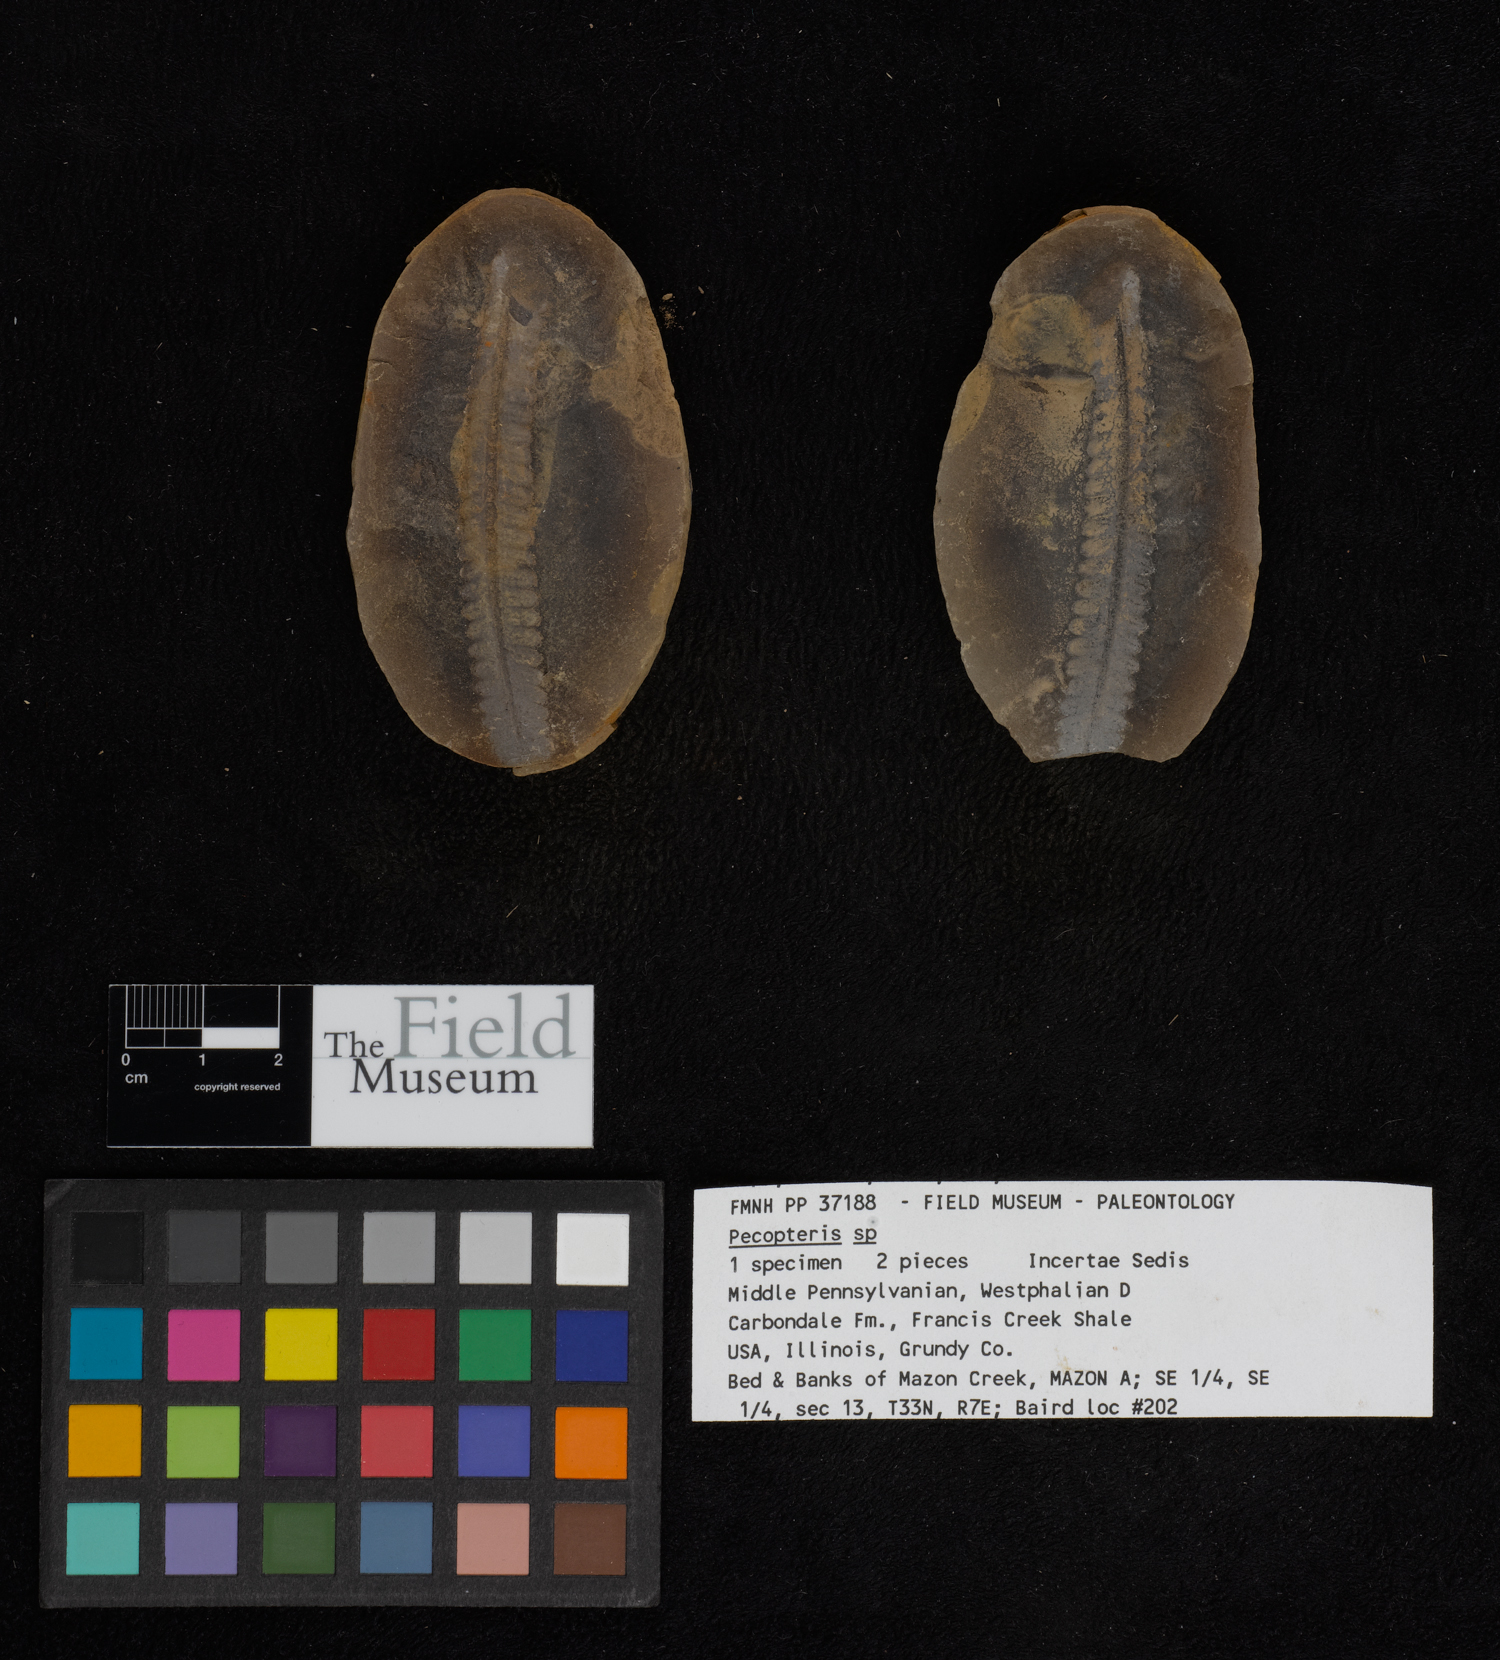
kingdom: Plantae
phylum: Tracheophyta
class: Polypodiopsida
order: Marattiales
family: Asterothecaceae
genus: Pecopteris
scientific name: Pecopteris
